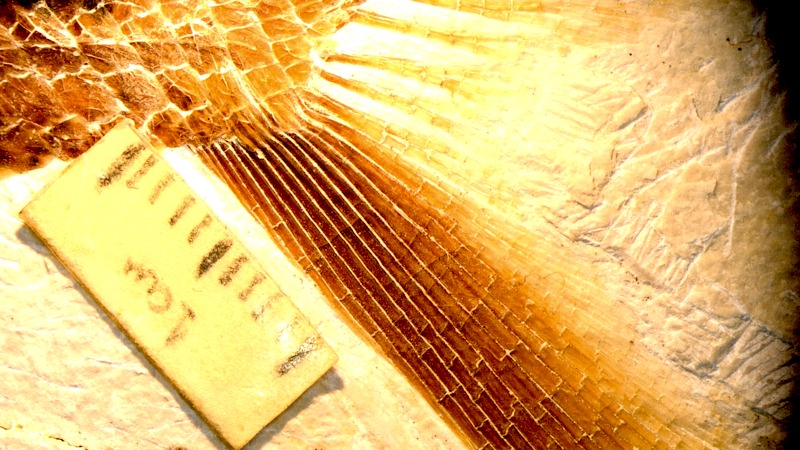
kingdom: Animalia
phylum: Chordata
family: Aspidorhynchidae
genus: Aspidorhynchus
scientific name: Aspidorhynchus sanzenbacheri
